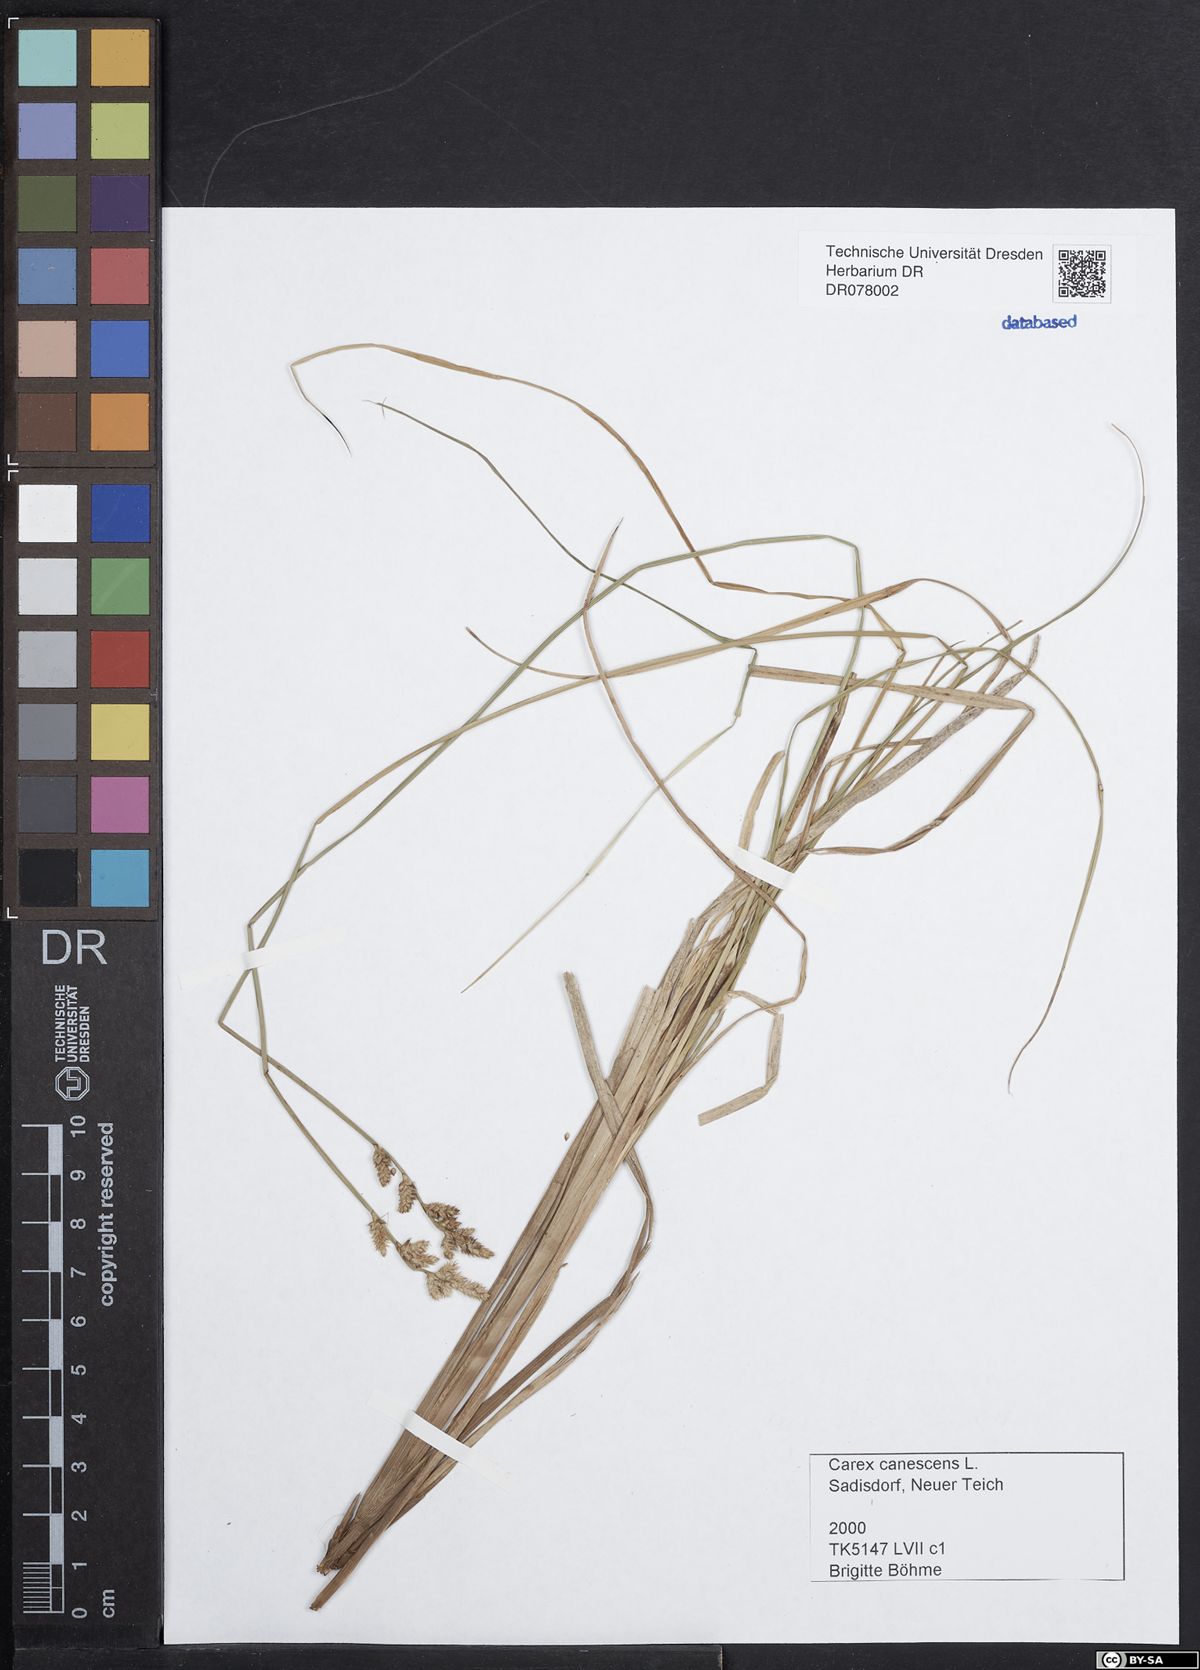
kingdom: Plantae
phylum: Tracheophyta
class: Liliopsida
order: Poales
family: Cyperaceae
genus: Carex
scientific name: Carex canescens
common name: White sedge
